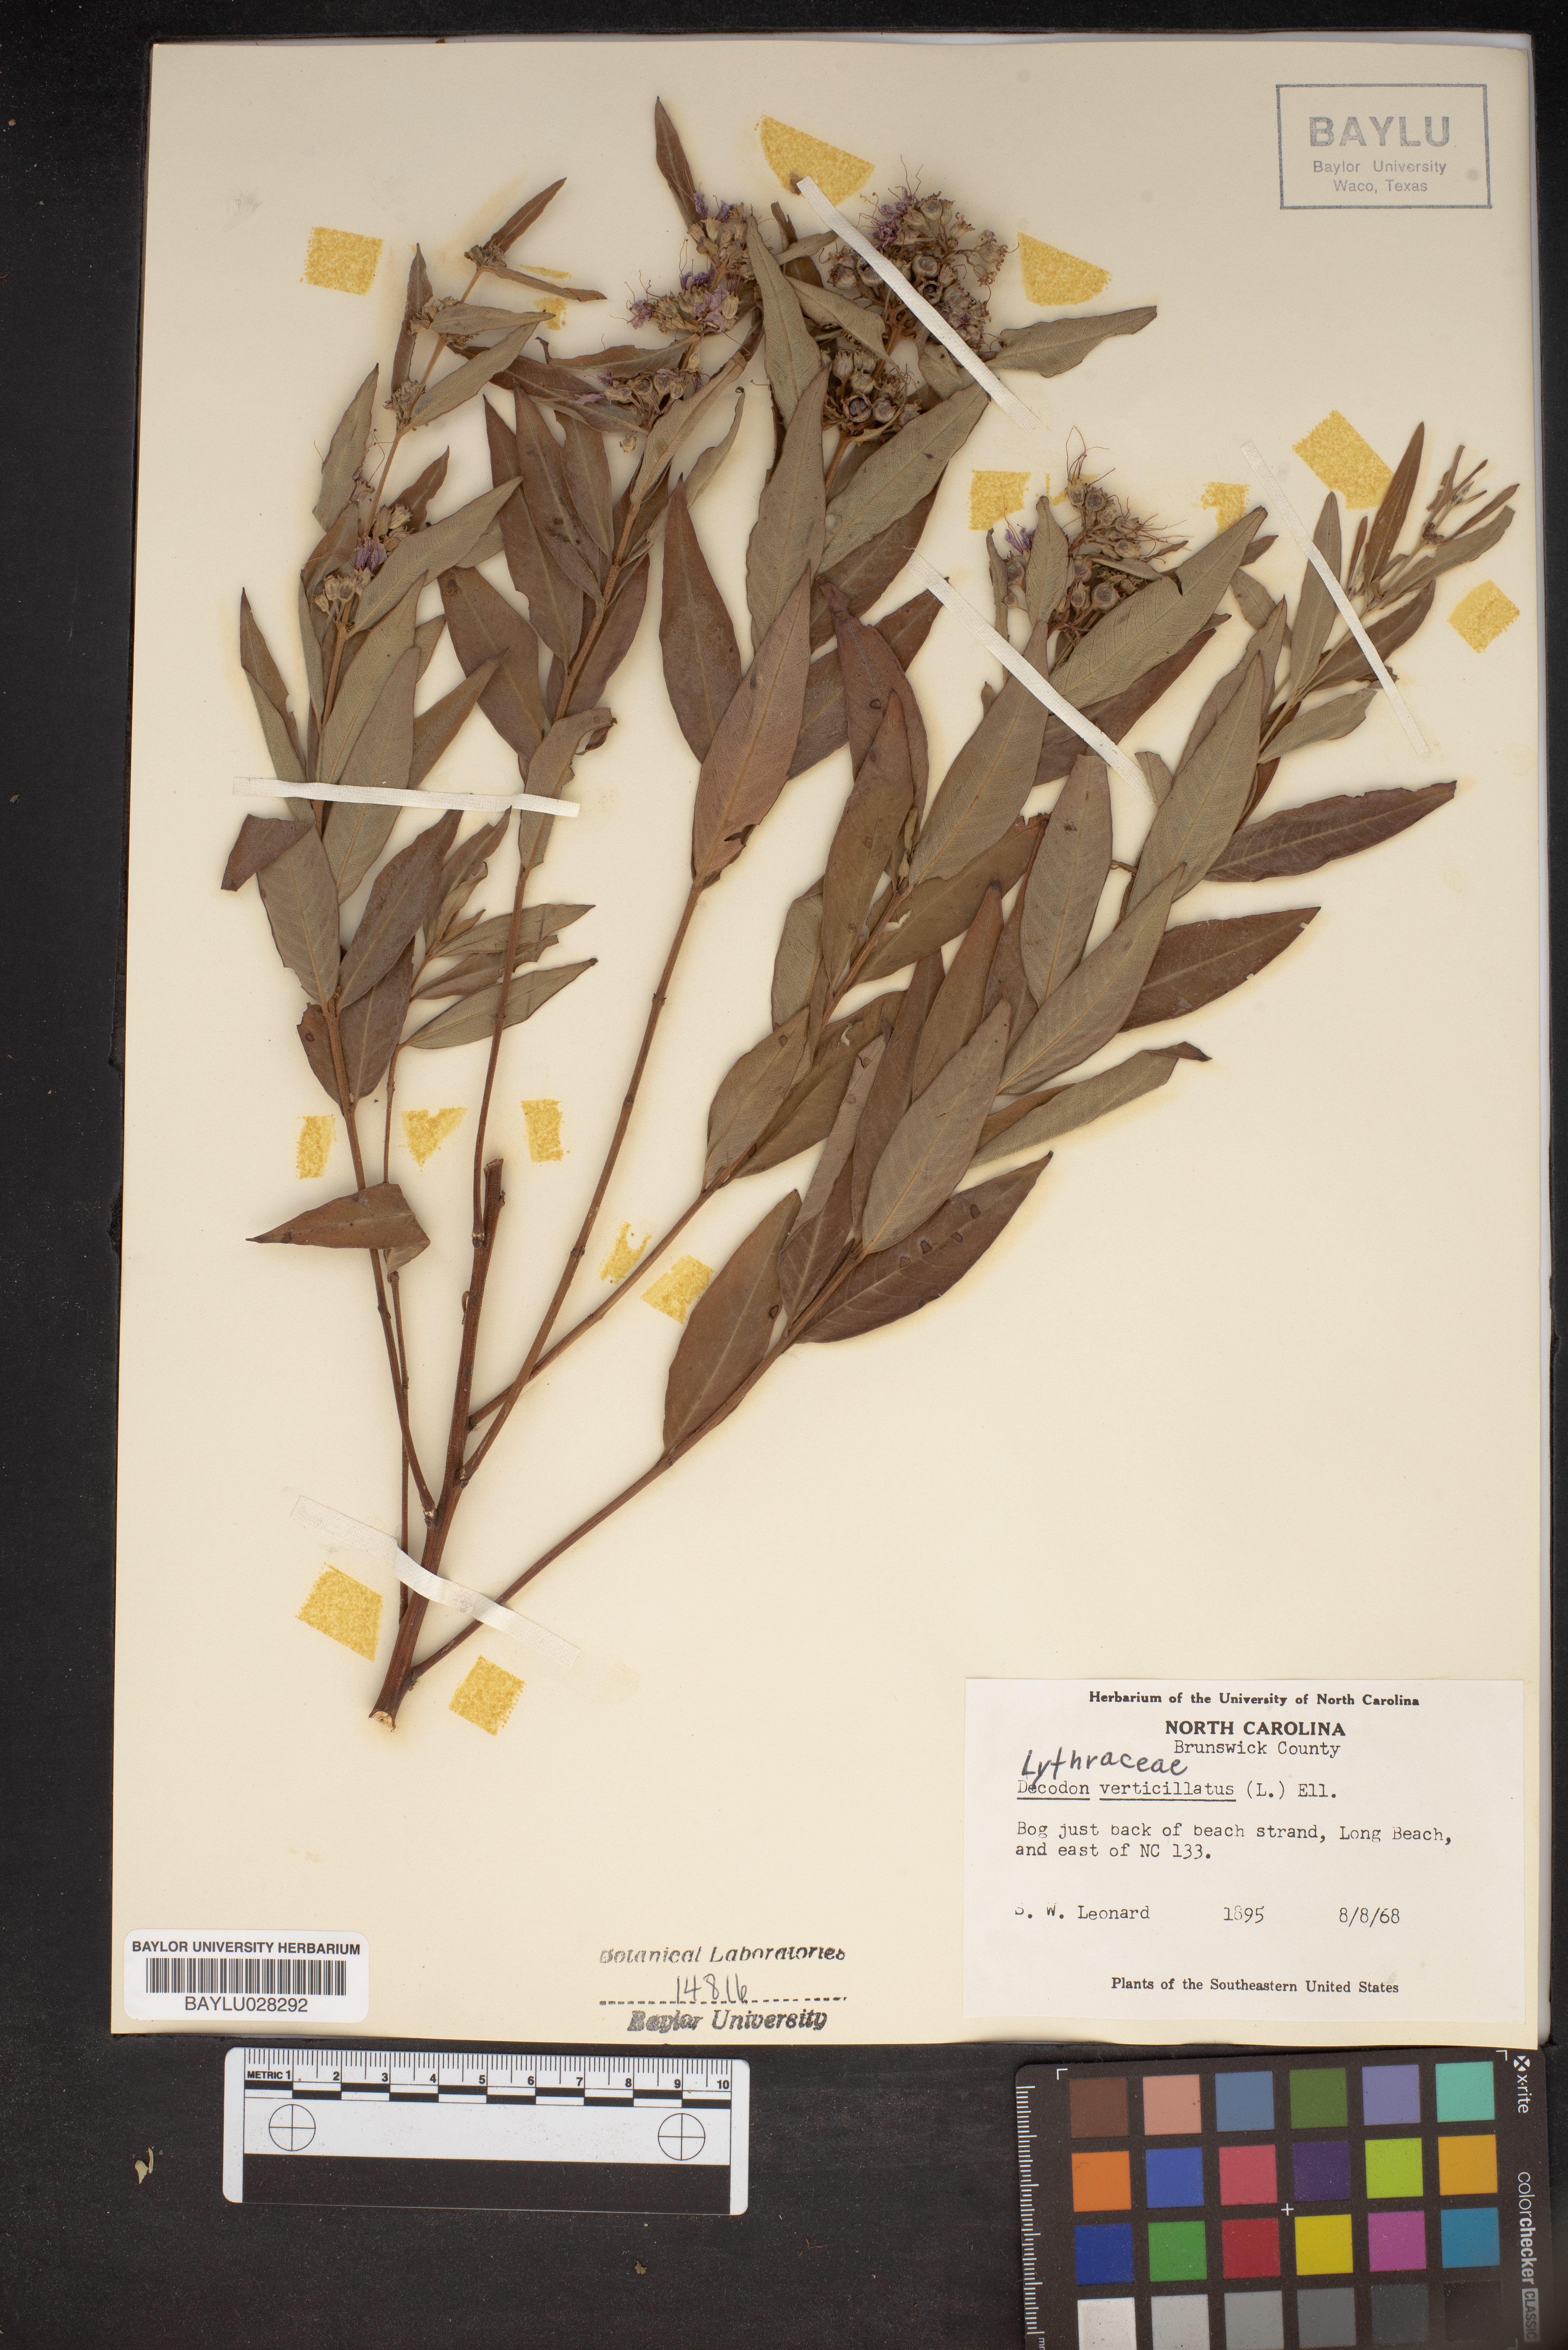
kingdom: Plantae
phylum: Tracheophyta
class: Magnoliopsida
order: Myrtales
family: Lythraceae
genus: Decodon
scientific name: Decodon verticillatus
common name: Hairy swamp loosestrife
